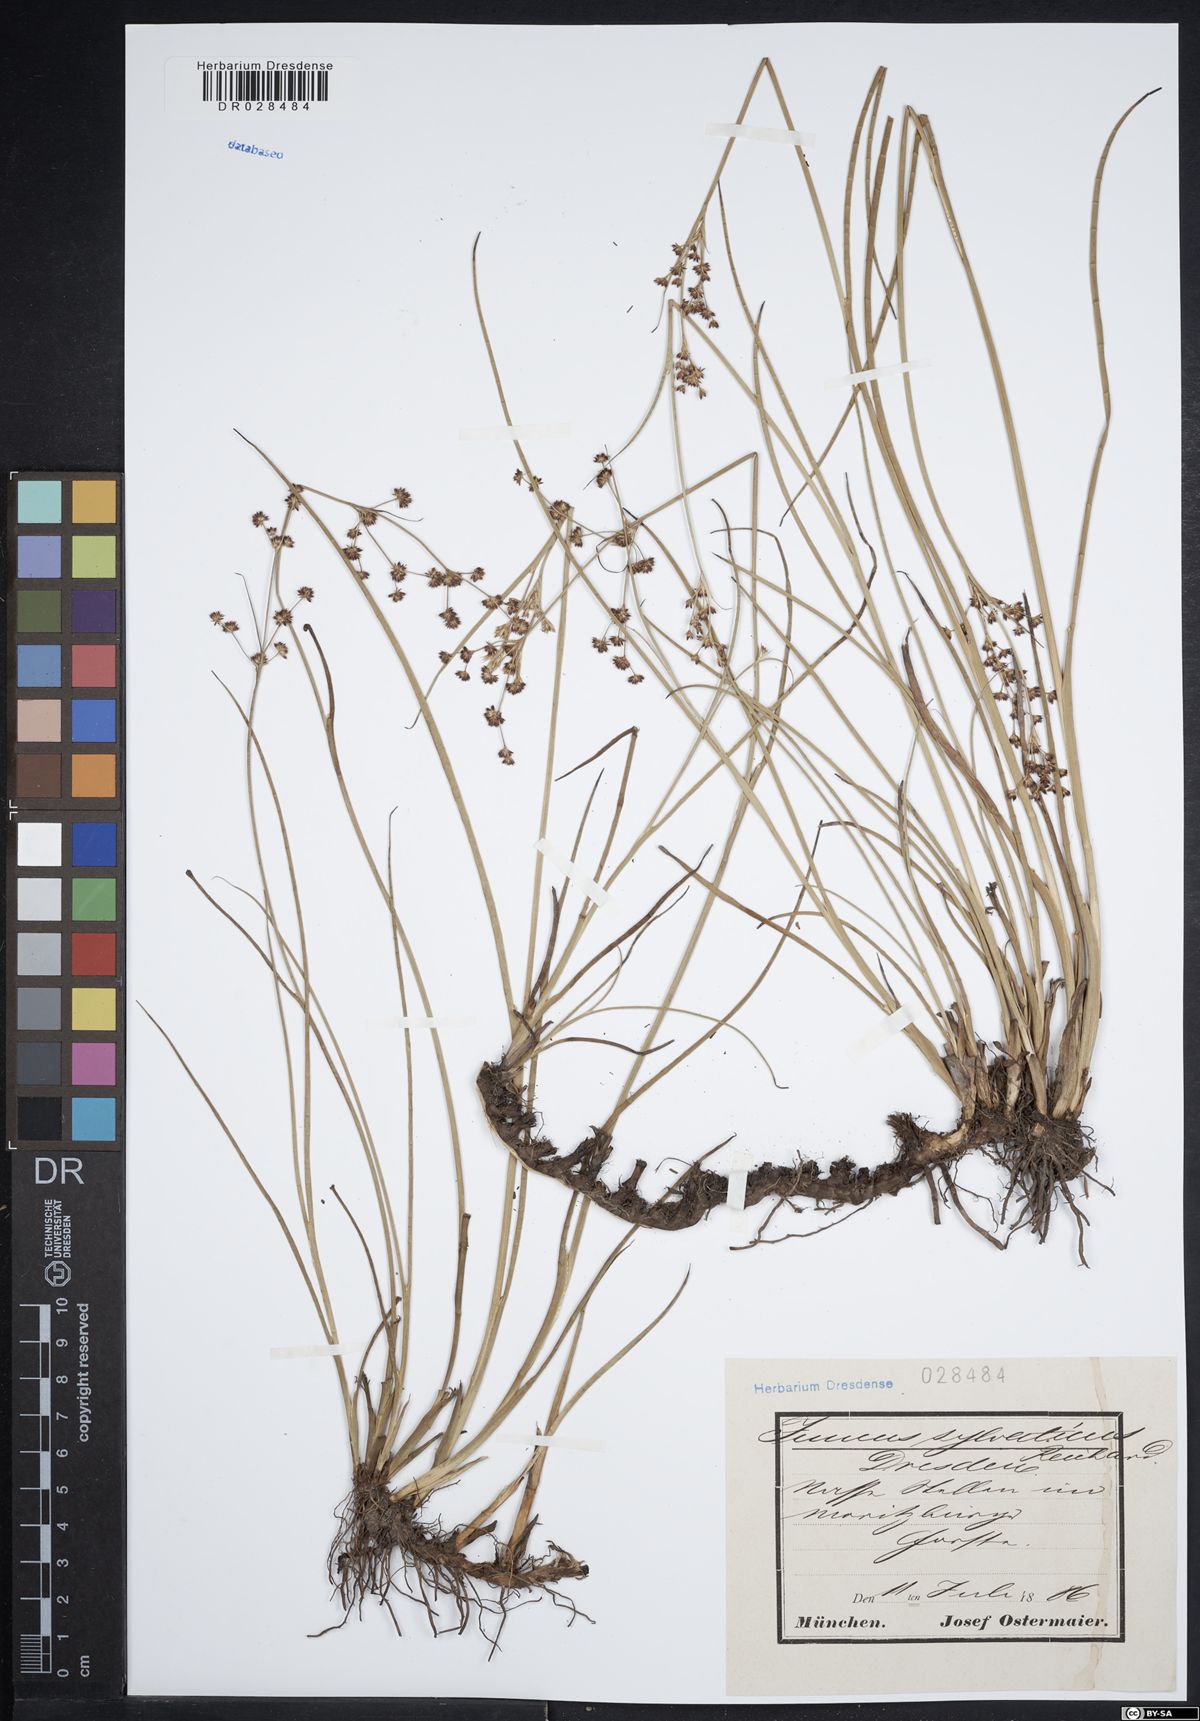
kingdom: Plantae
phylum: Tracheophyta
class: Liliopsida
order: Poales
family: Juncaceae
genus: Juncus
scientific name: Juncus acutiflorus
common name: Sharp-flowered rush
